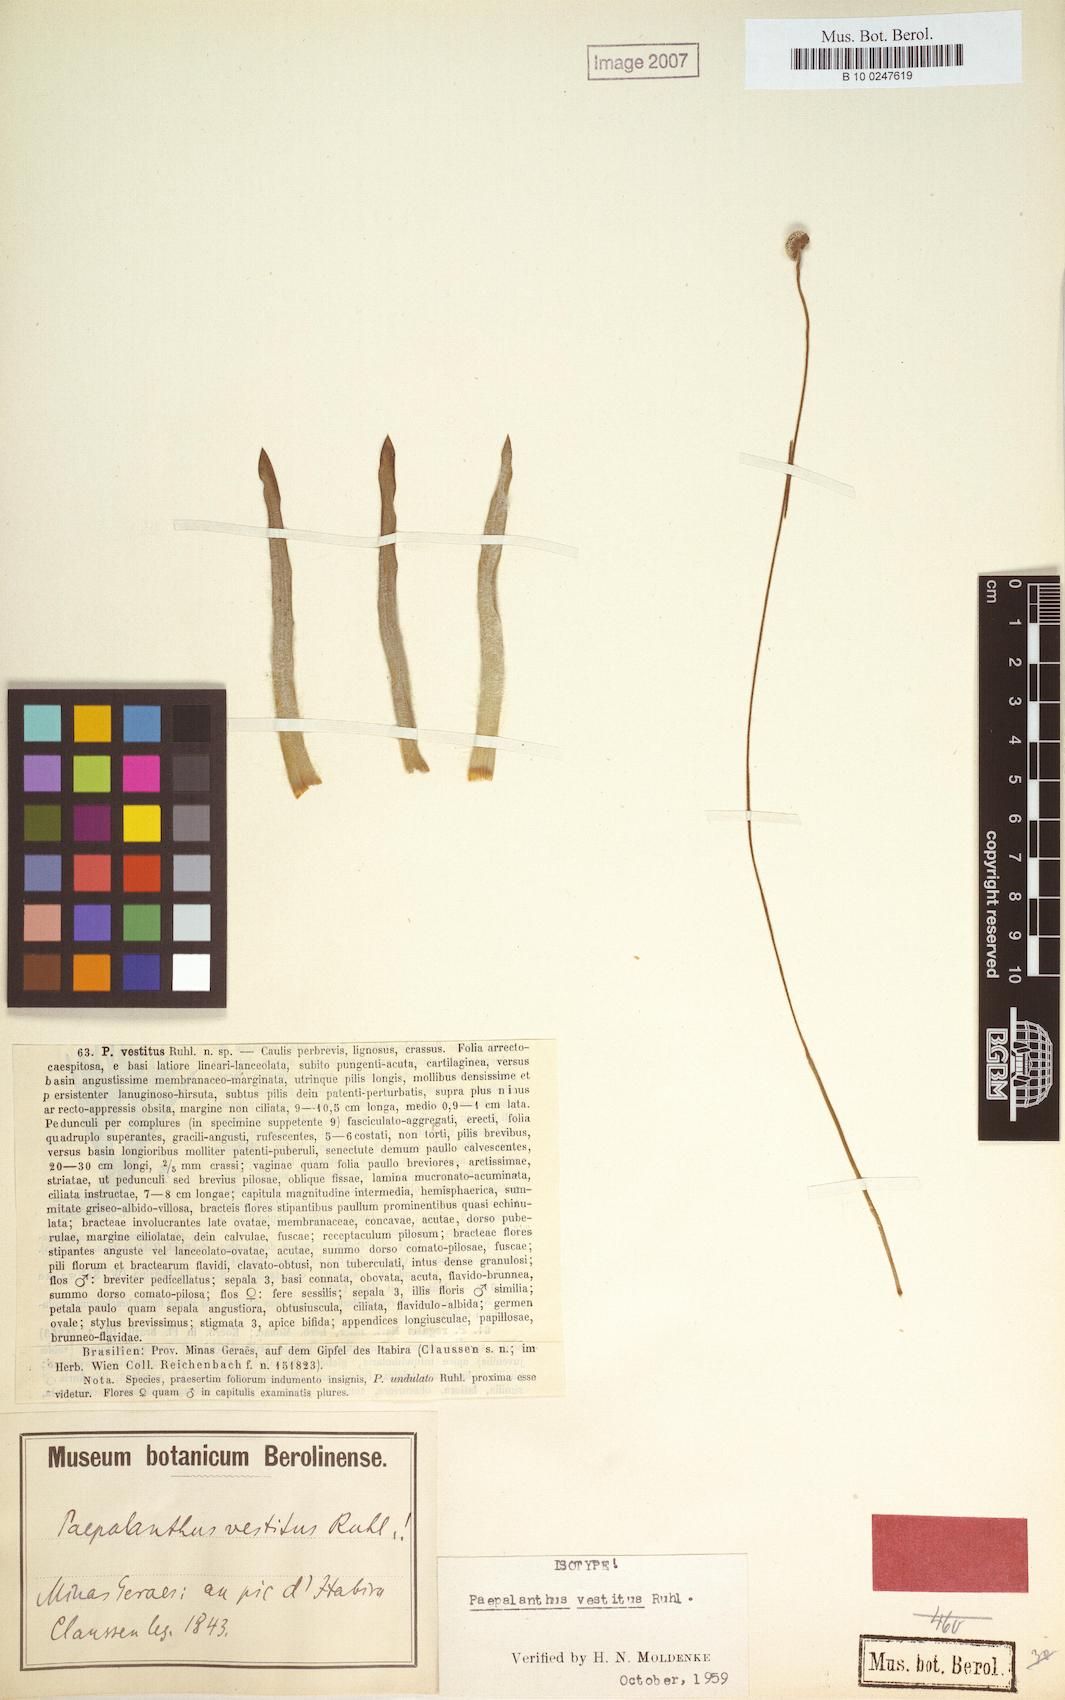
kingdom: Plantae
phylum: Tracheophyta
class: Liliopsida
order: Poales
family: Eriocaulaceae
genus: Paepalanthus
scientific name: Paepalanthus vestitus
